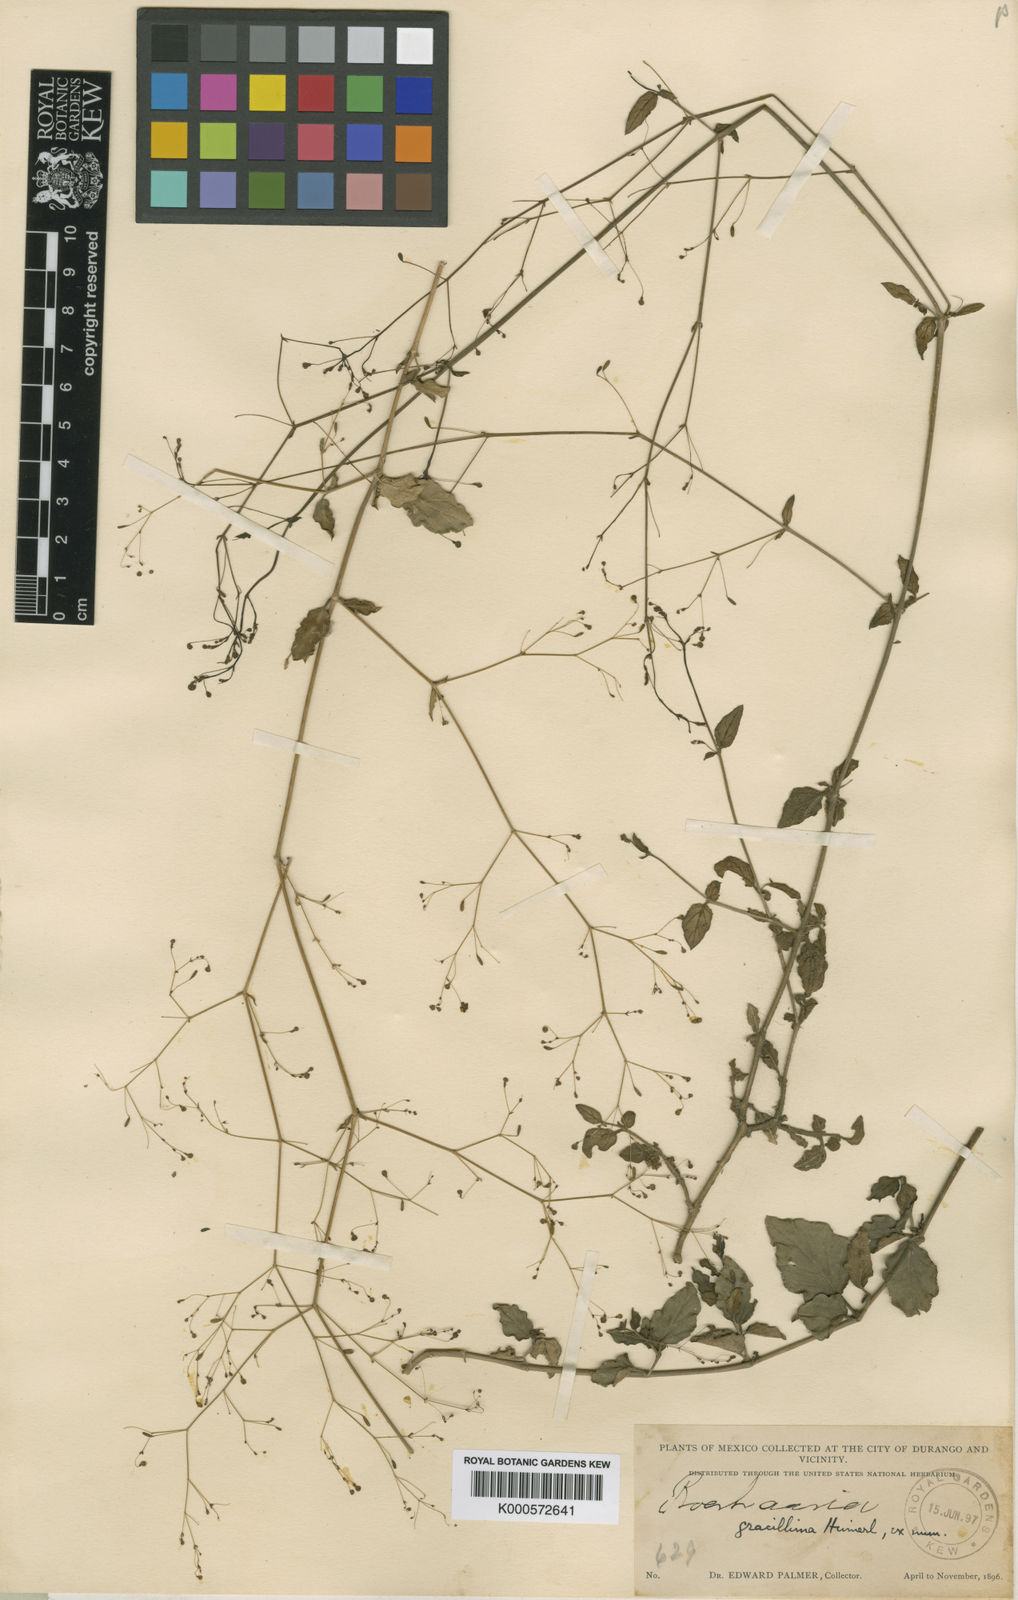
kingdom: Plantae
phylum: Tracheophyta
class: Magnoliopsida
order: Caryophyllales
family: Nyctaginaceae
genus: Boerhavia
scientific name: Boerhavia gracillima
